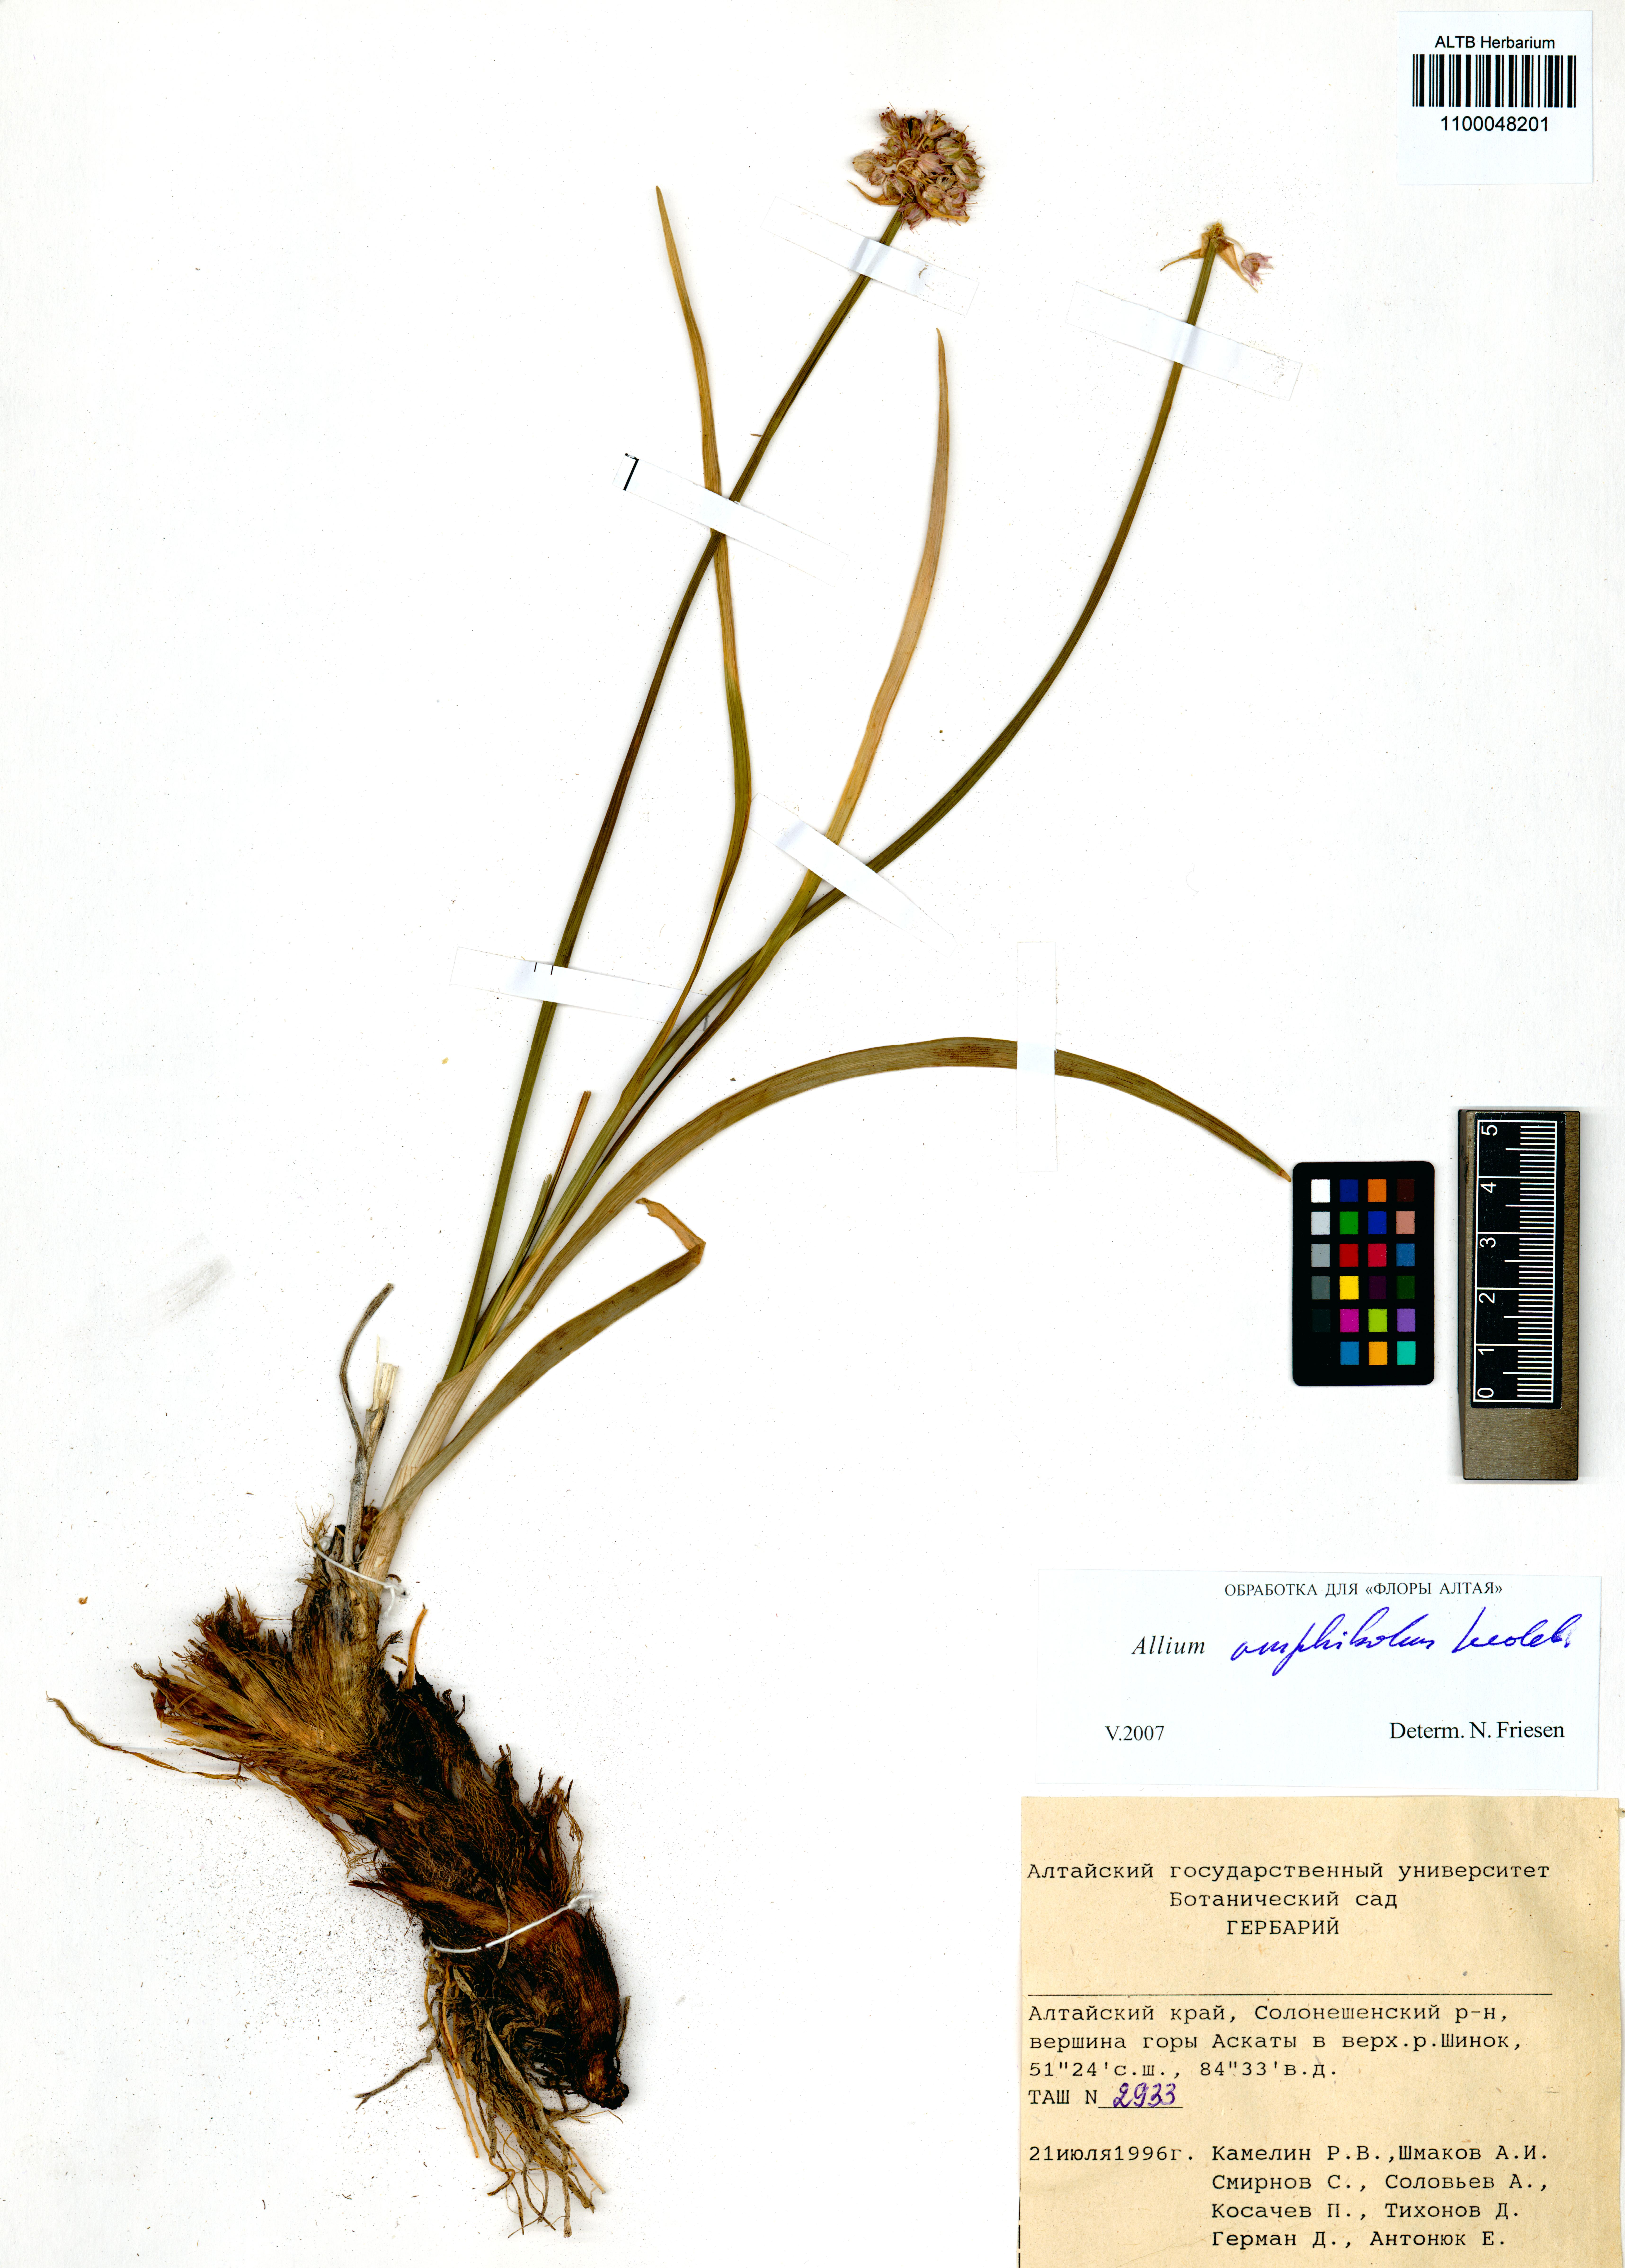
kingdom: Plantae
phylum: Tracheophyta
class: Liliopsida
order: Asparagales
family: Amaryllidaceae
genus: Allium
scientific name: Allium amphibolum
